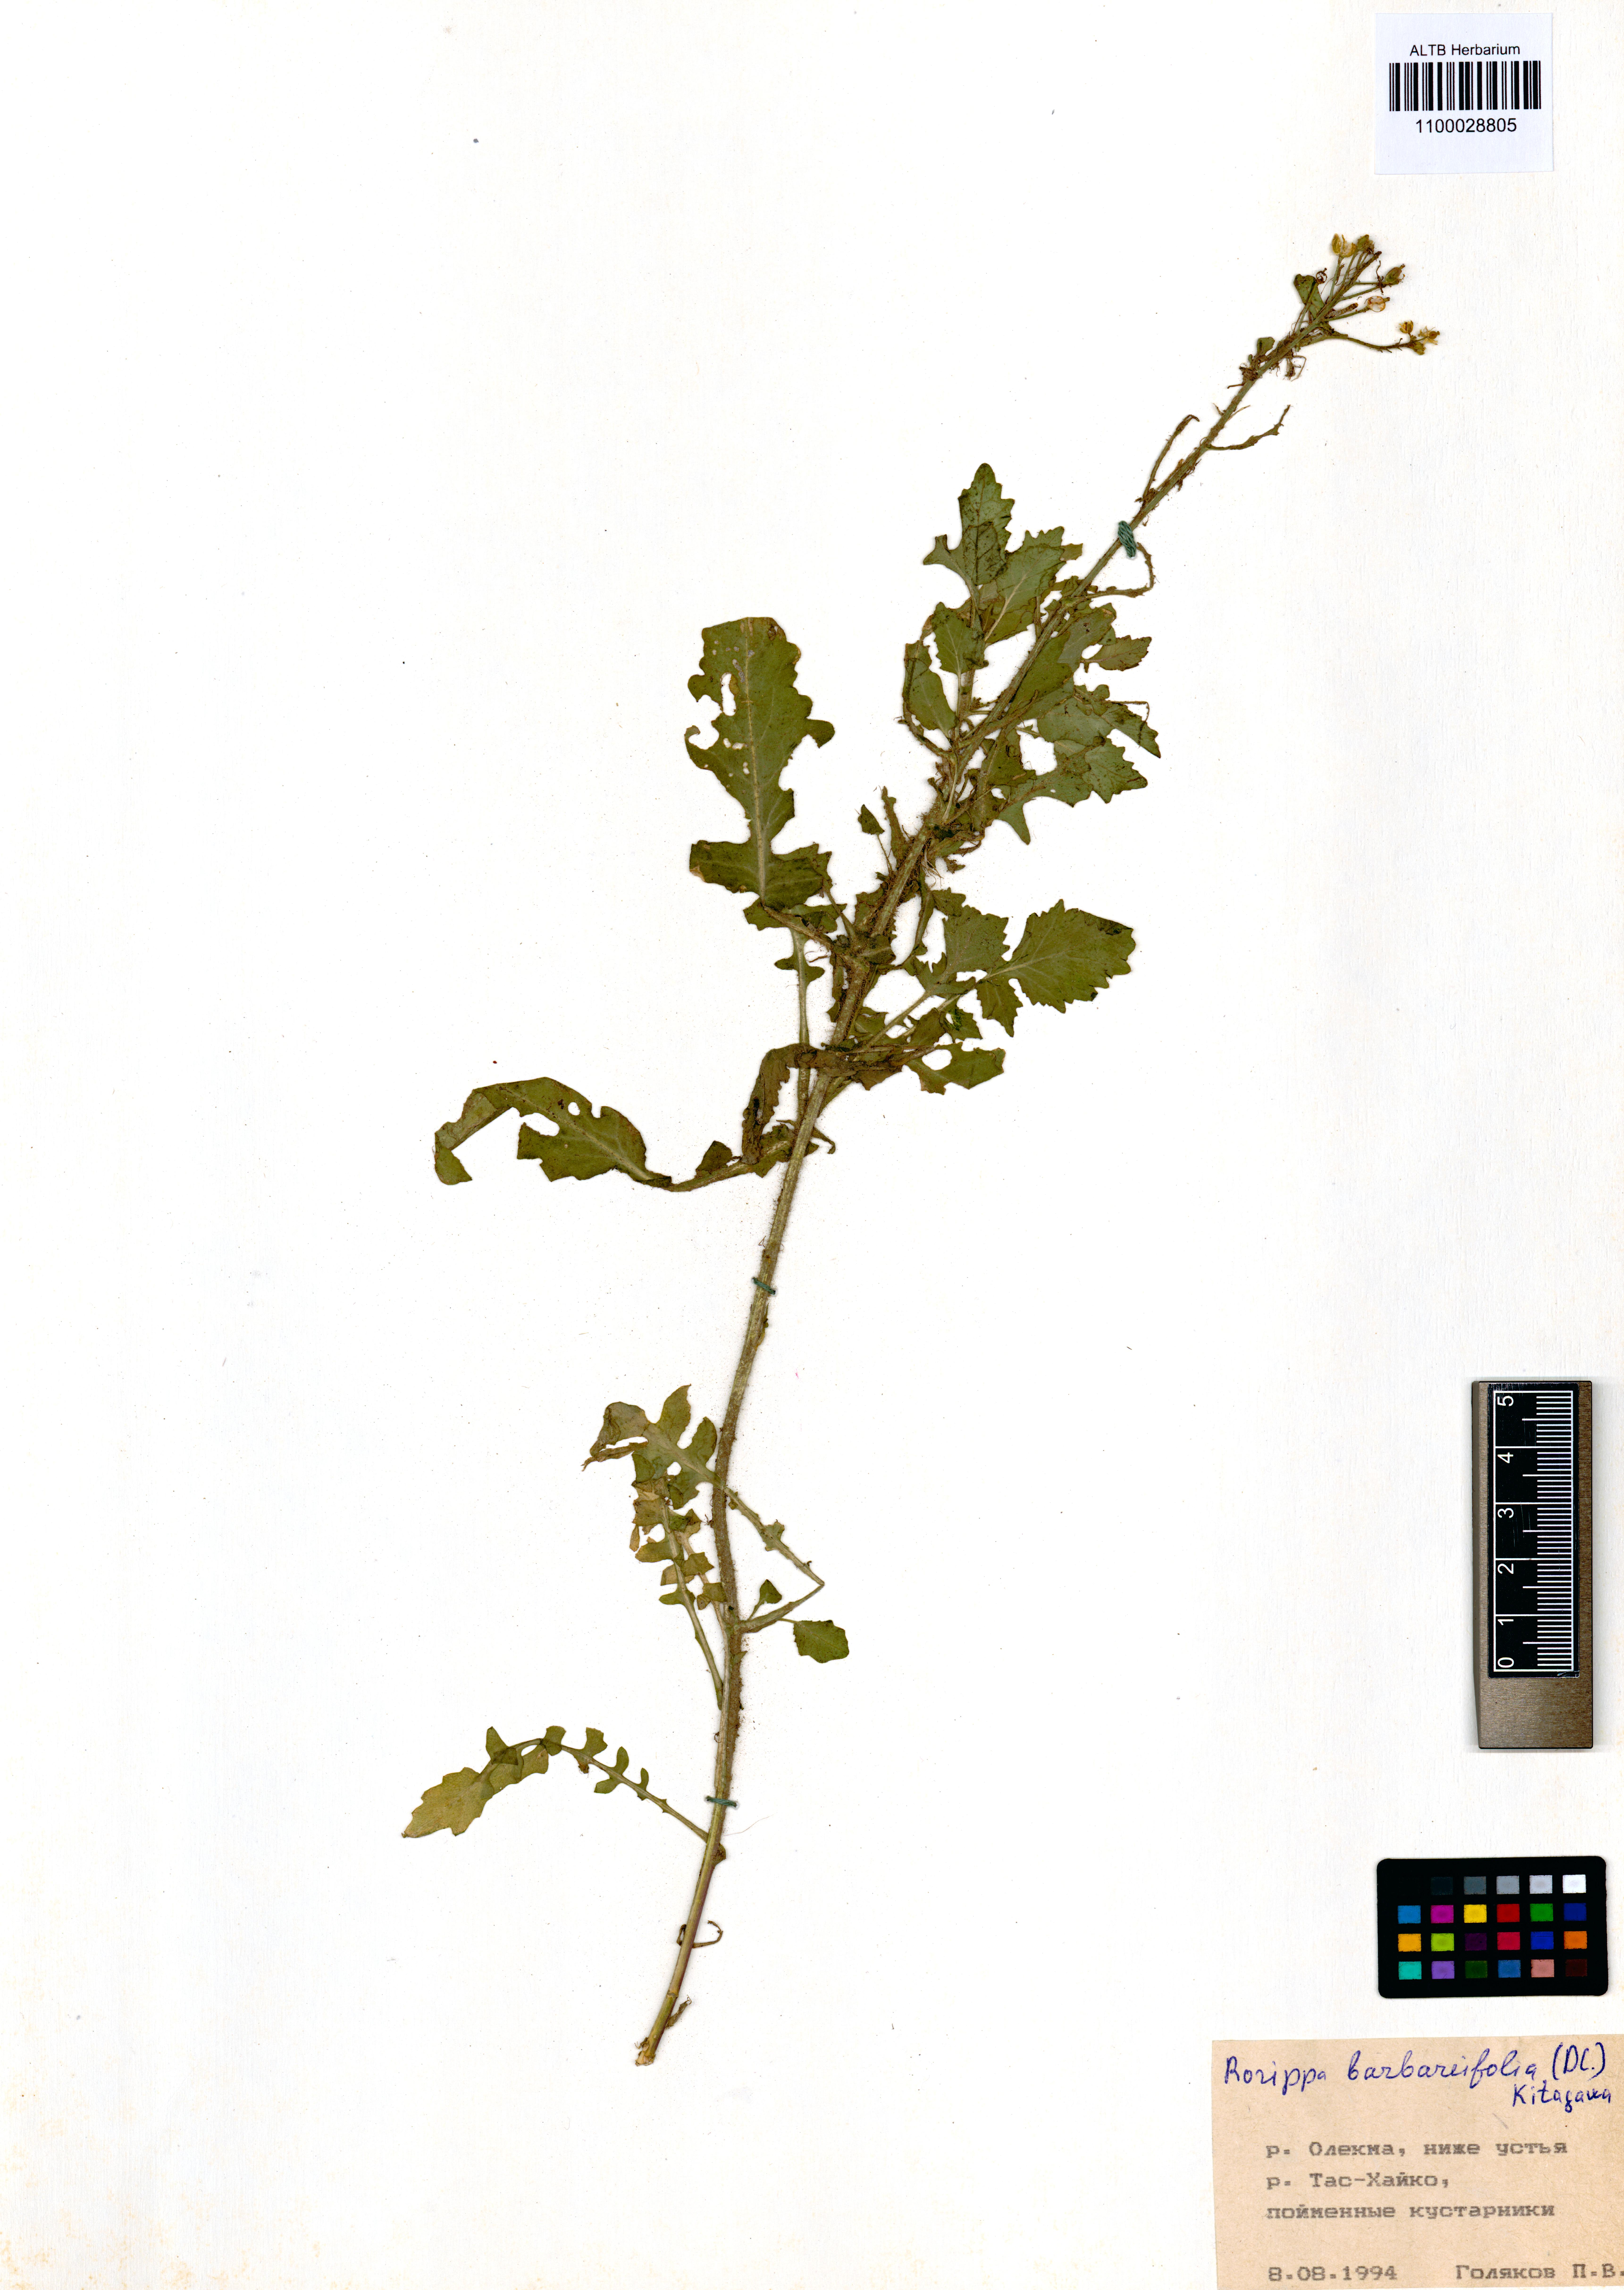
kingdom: Plantae
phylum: Tracheophyta
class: Magnoliopsida
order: Brassicales
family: Brassicaceae
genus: Rorippa
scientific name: Rorippa barbaraefolia
